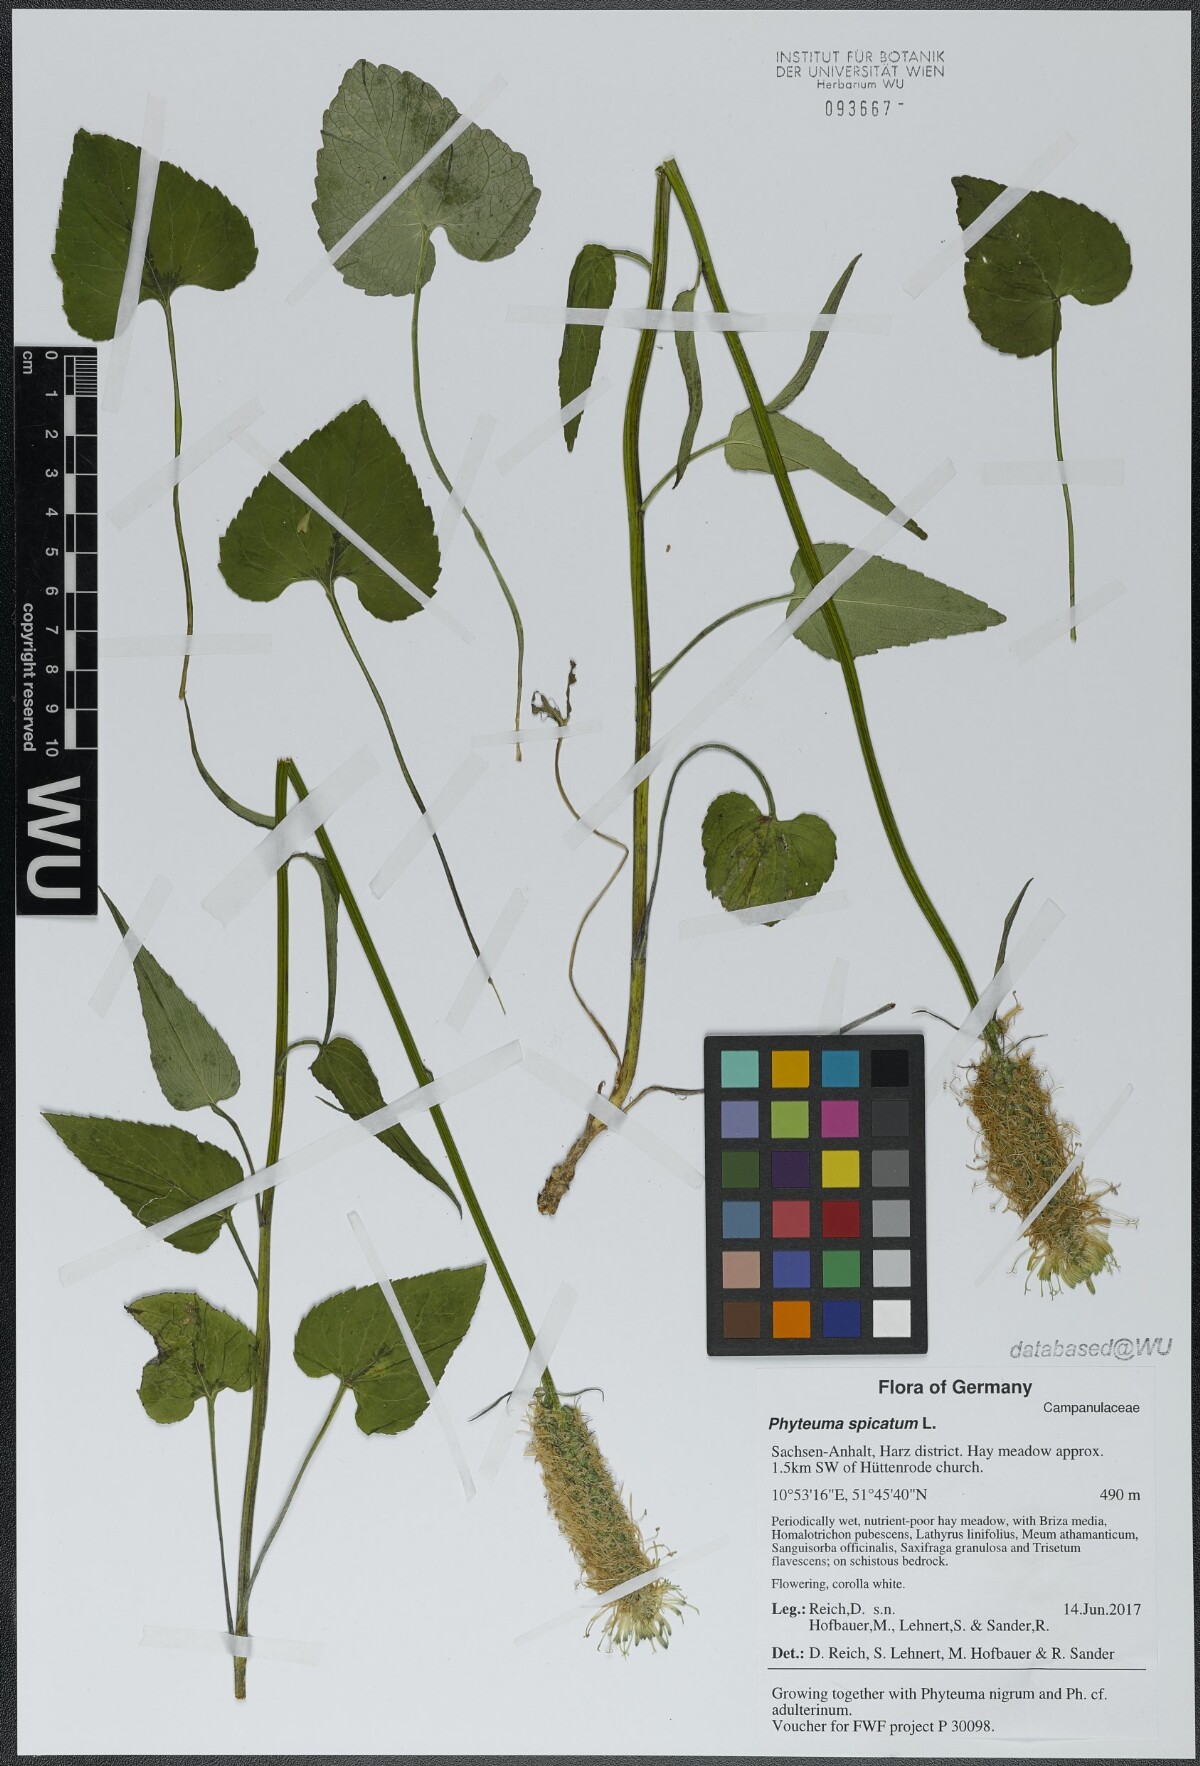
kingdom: Plantae
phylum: Tracheophyta
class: Magnoliopsida
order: Asterales
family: Campanulaceae
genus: Phyteuma
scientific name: Phyteuma spicatum
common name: Spiked rampion
